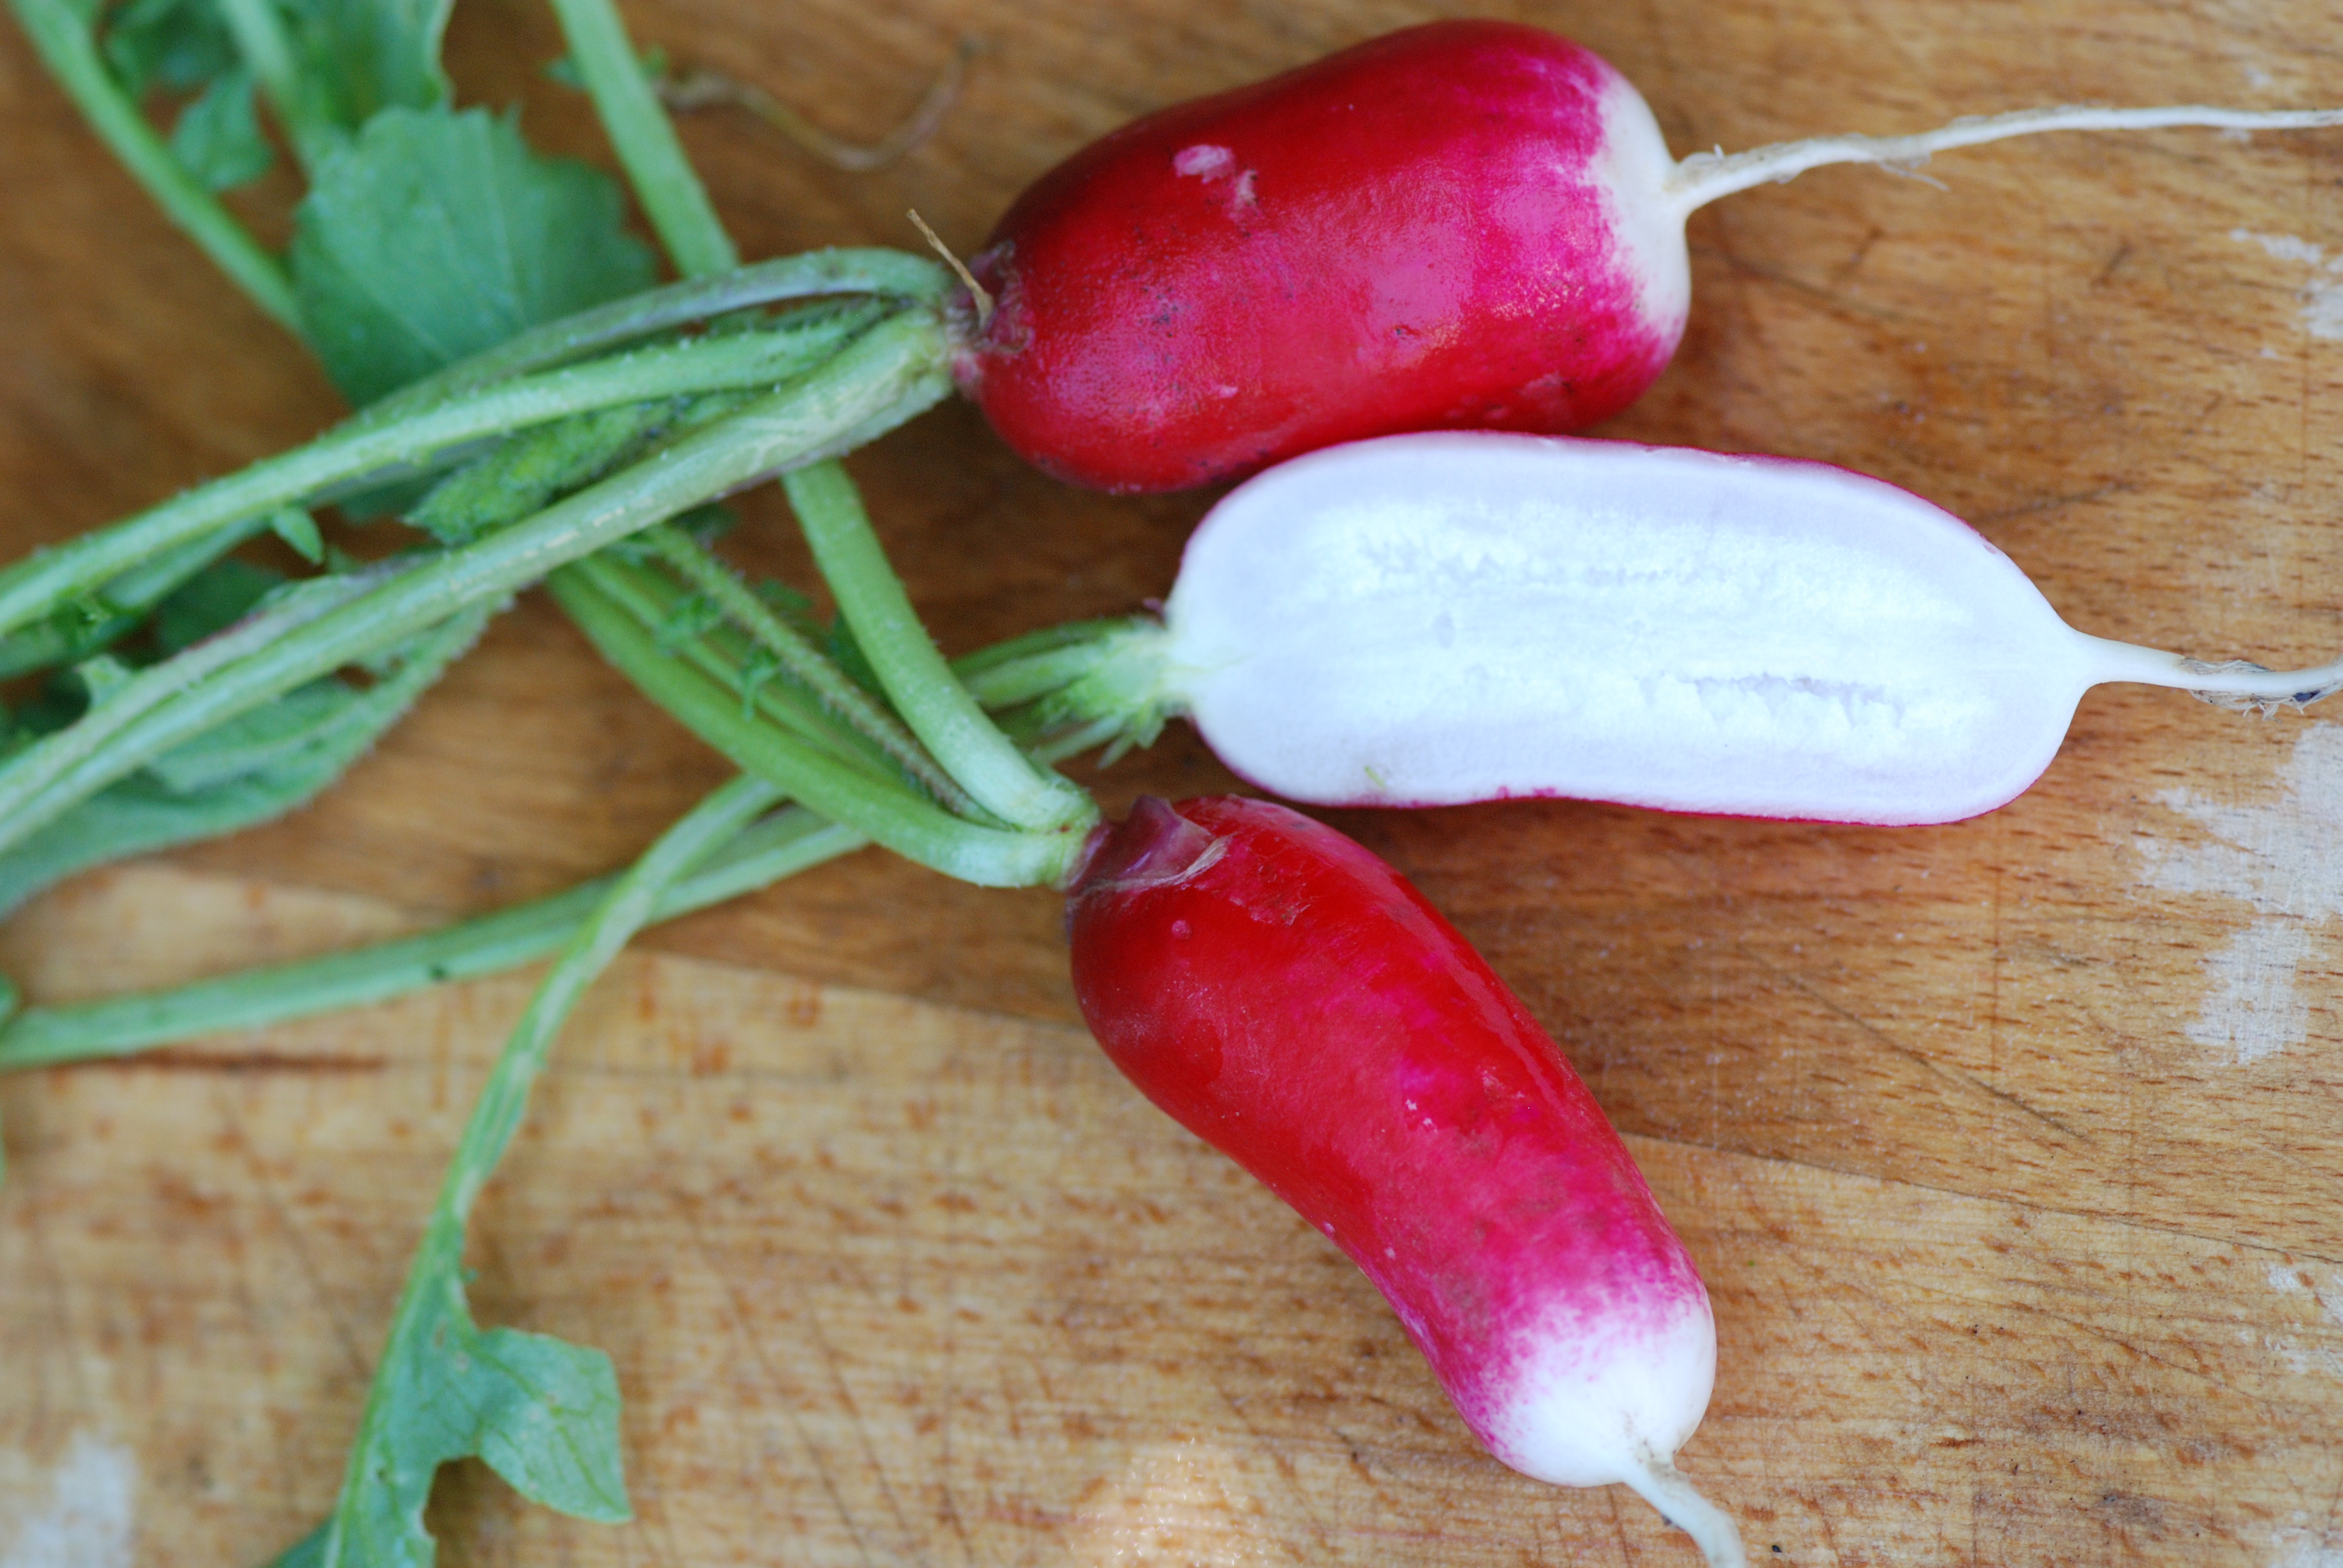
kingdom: Plantae
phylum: Tracheophyta
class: Magnoliopsida
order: Brassicales
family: Brassicaceae
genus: Raphanus
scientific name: Raphanus sativus
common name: Cultivated radish
